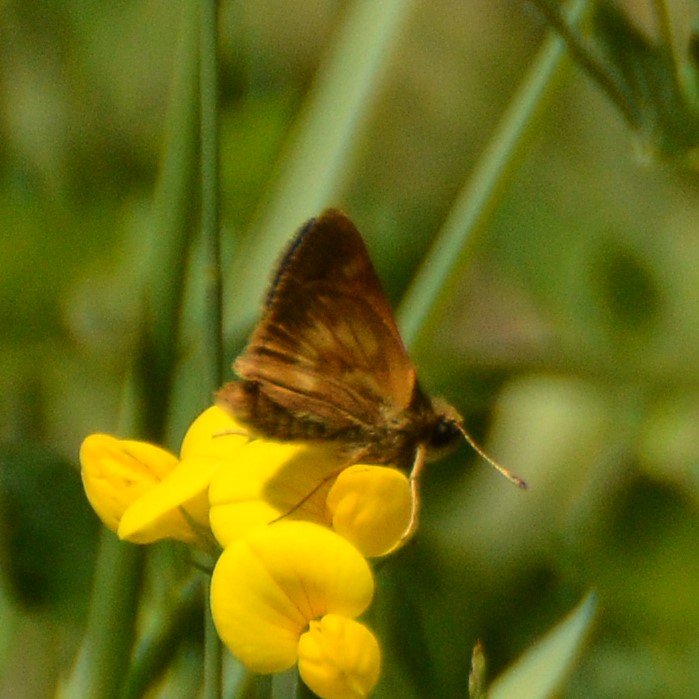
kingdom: Animalia
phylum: Arthropoda
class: Insecta
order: Lepidoptera
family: Hesperiidae
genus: Polites
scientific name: Polites
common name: Long Dash Skipper
